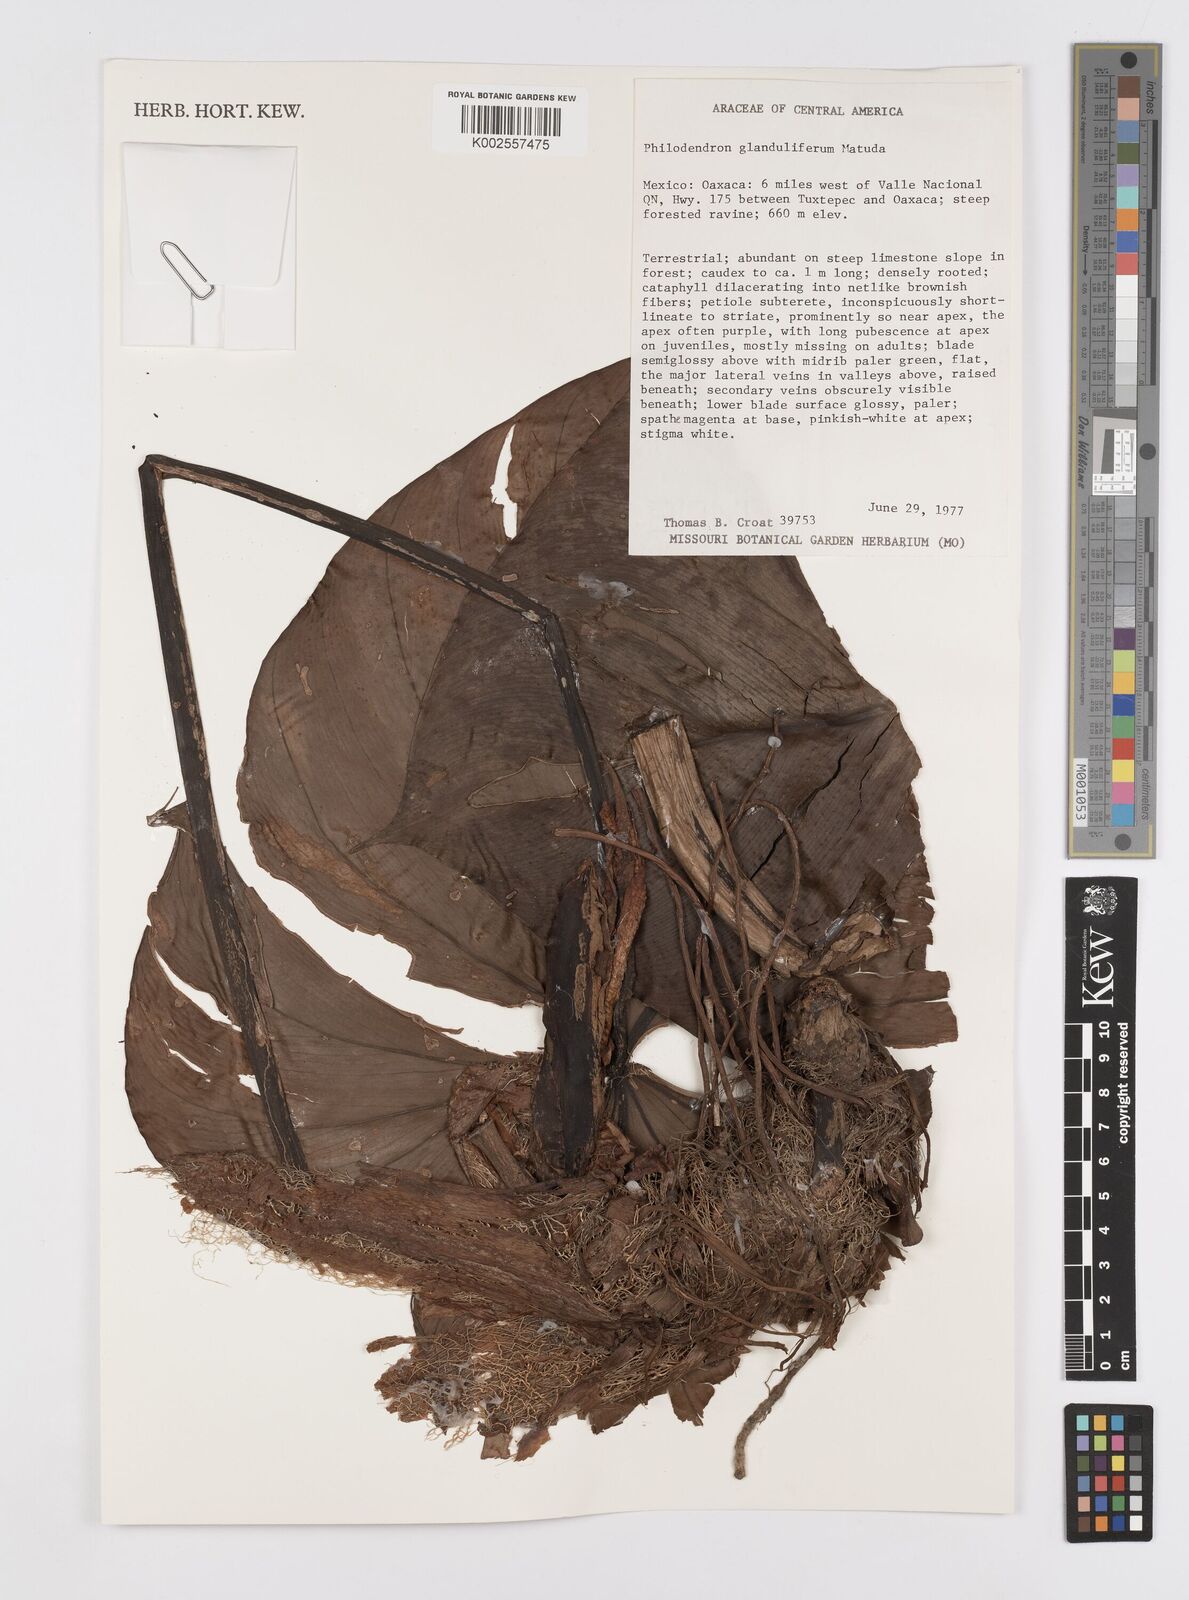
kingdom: Plantae
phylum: Tracheophyta
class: Liliopsida
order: Alismatales
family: Araceae
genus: Philodendron
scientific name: Philodendron glanduliferum
